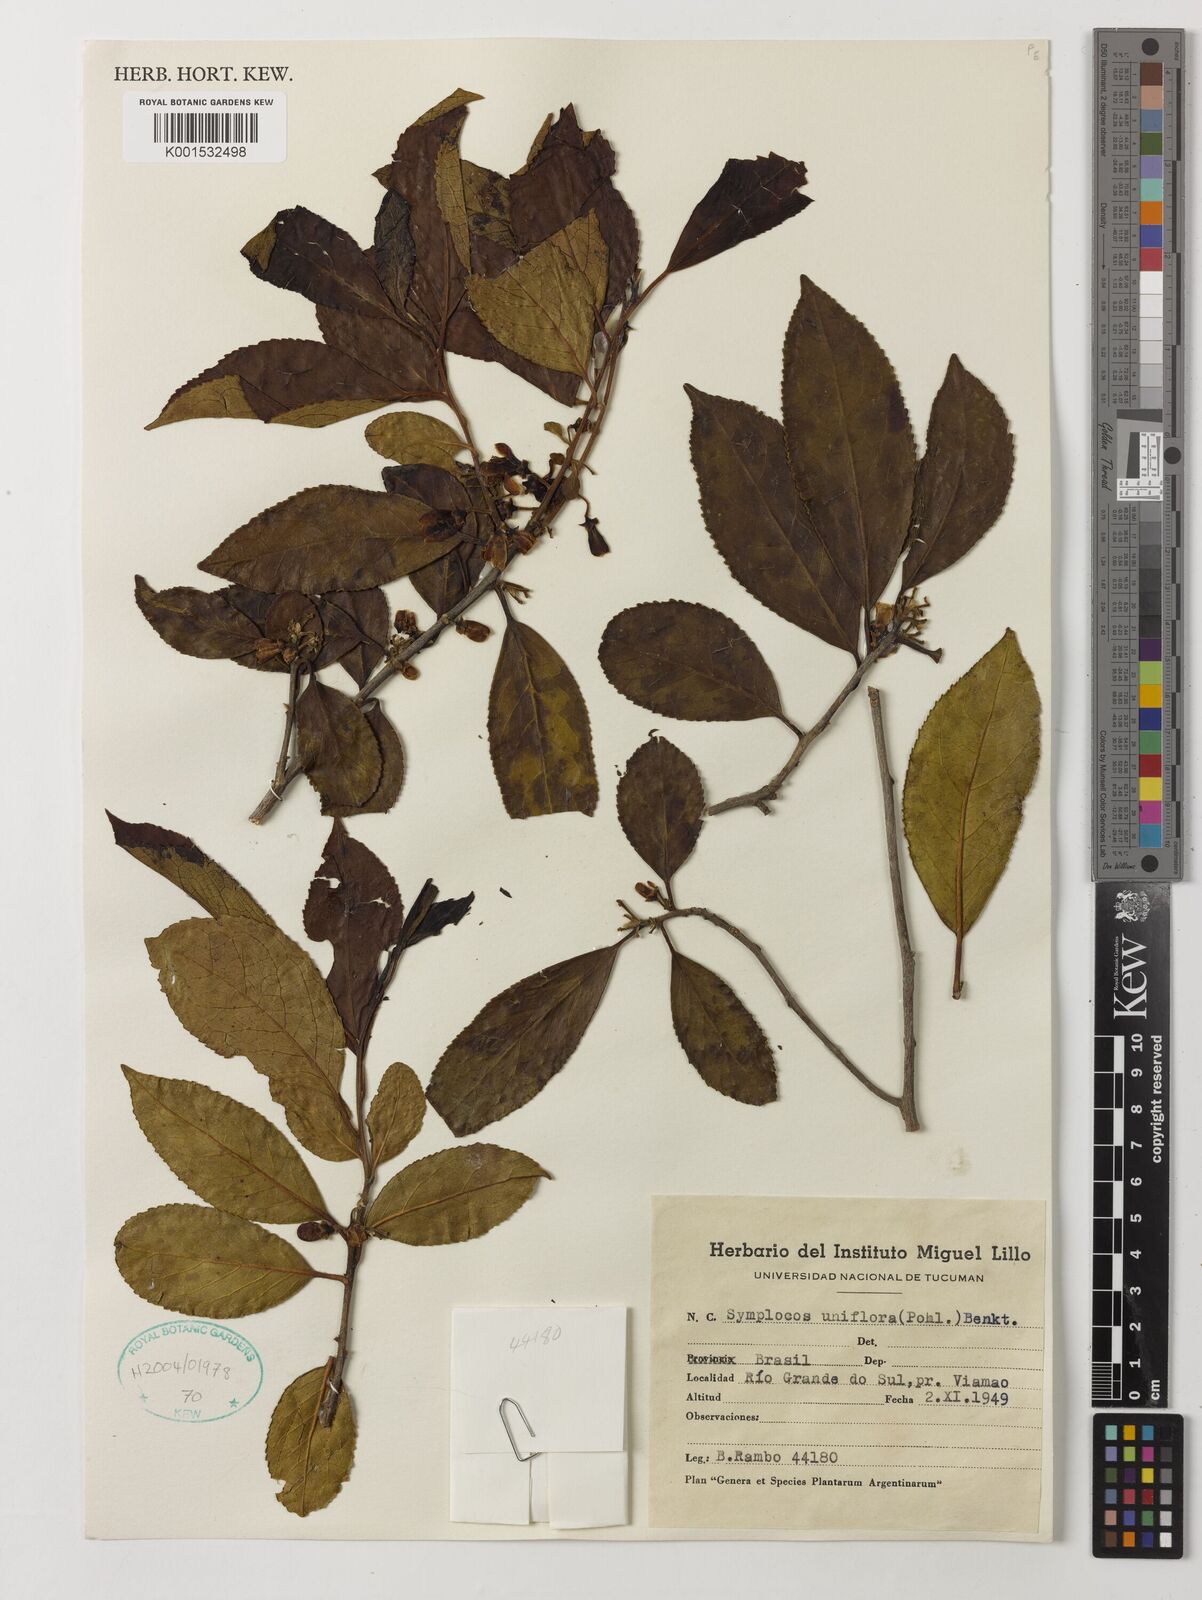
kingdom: Plantae
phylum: Tracheophyta
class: Magnoliopsida
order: Ericales
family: Symplocaceae
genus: Symplocos
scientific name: Symplocos uniflora
